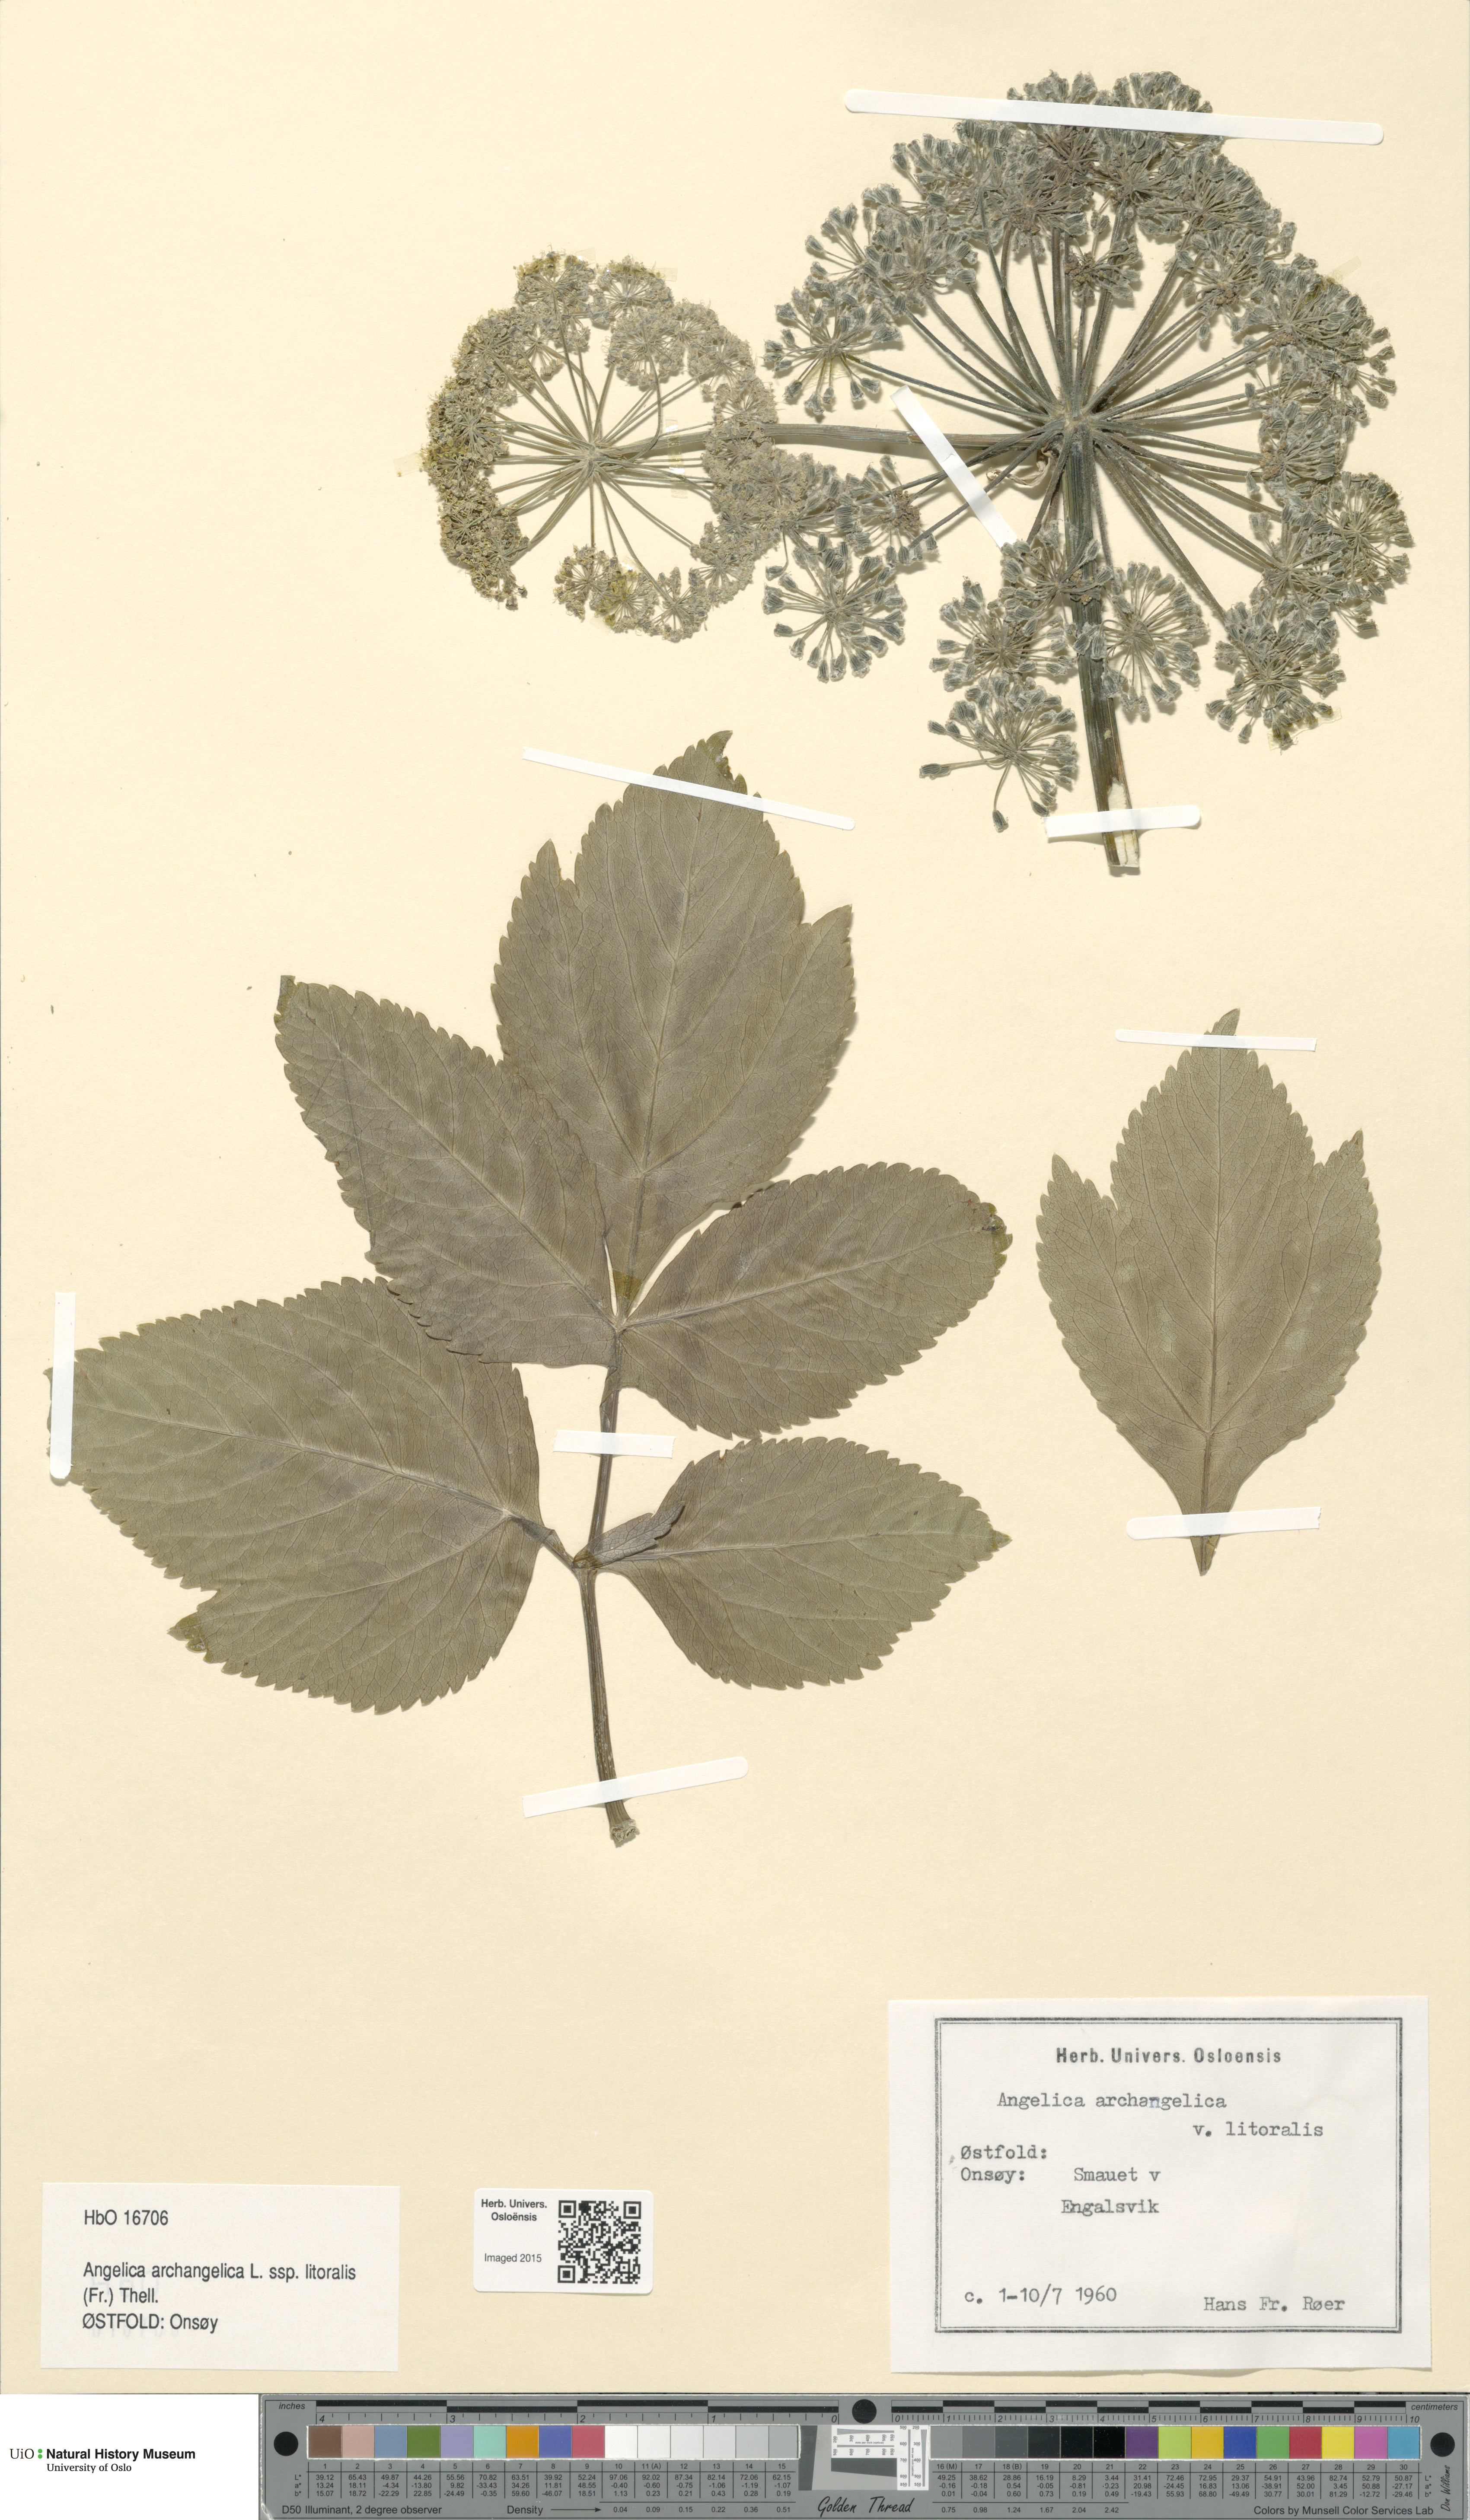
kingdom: Plantae
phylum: Tracheophyta
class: Magnoliopsida
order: Apiales
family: Apiaceae
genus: Angelica
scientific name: Angelica archangelica
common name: Garden angelica
